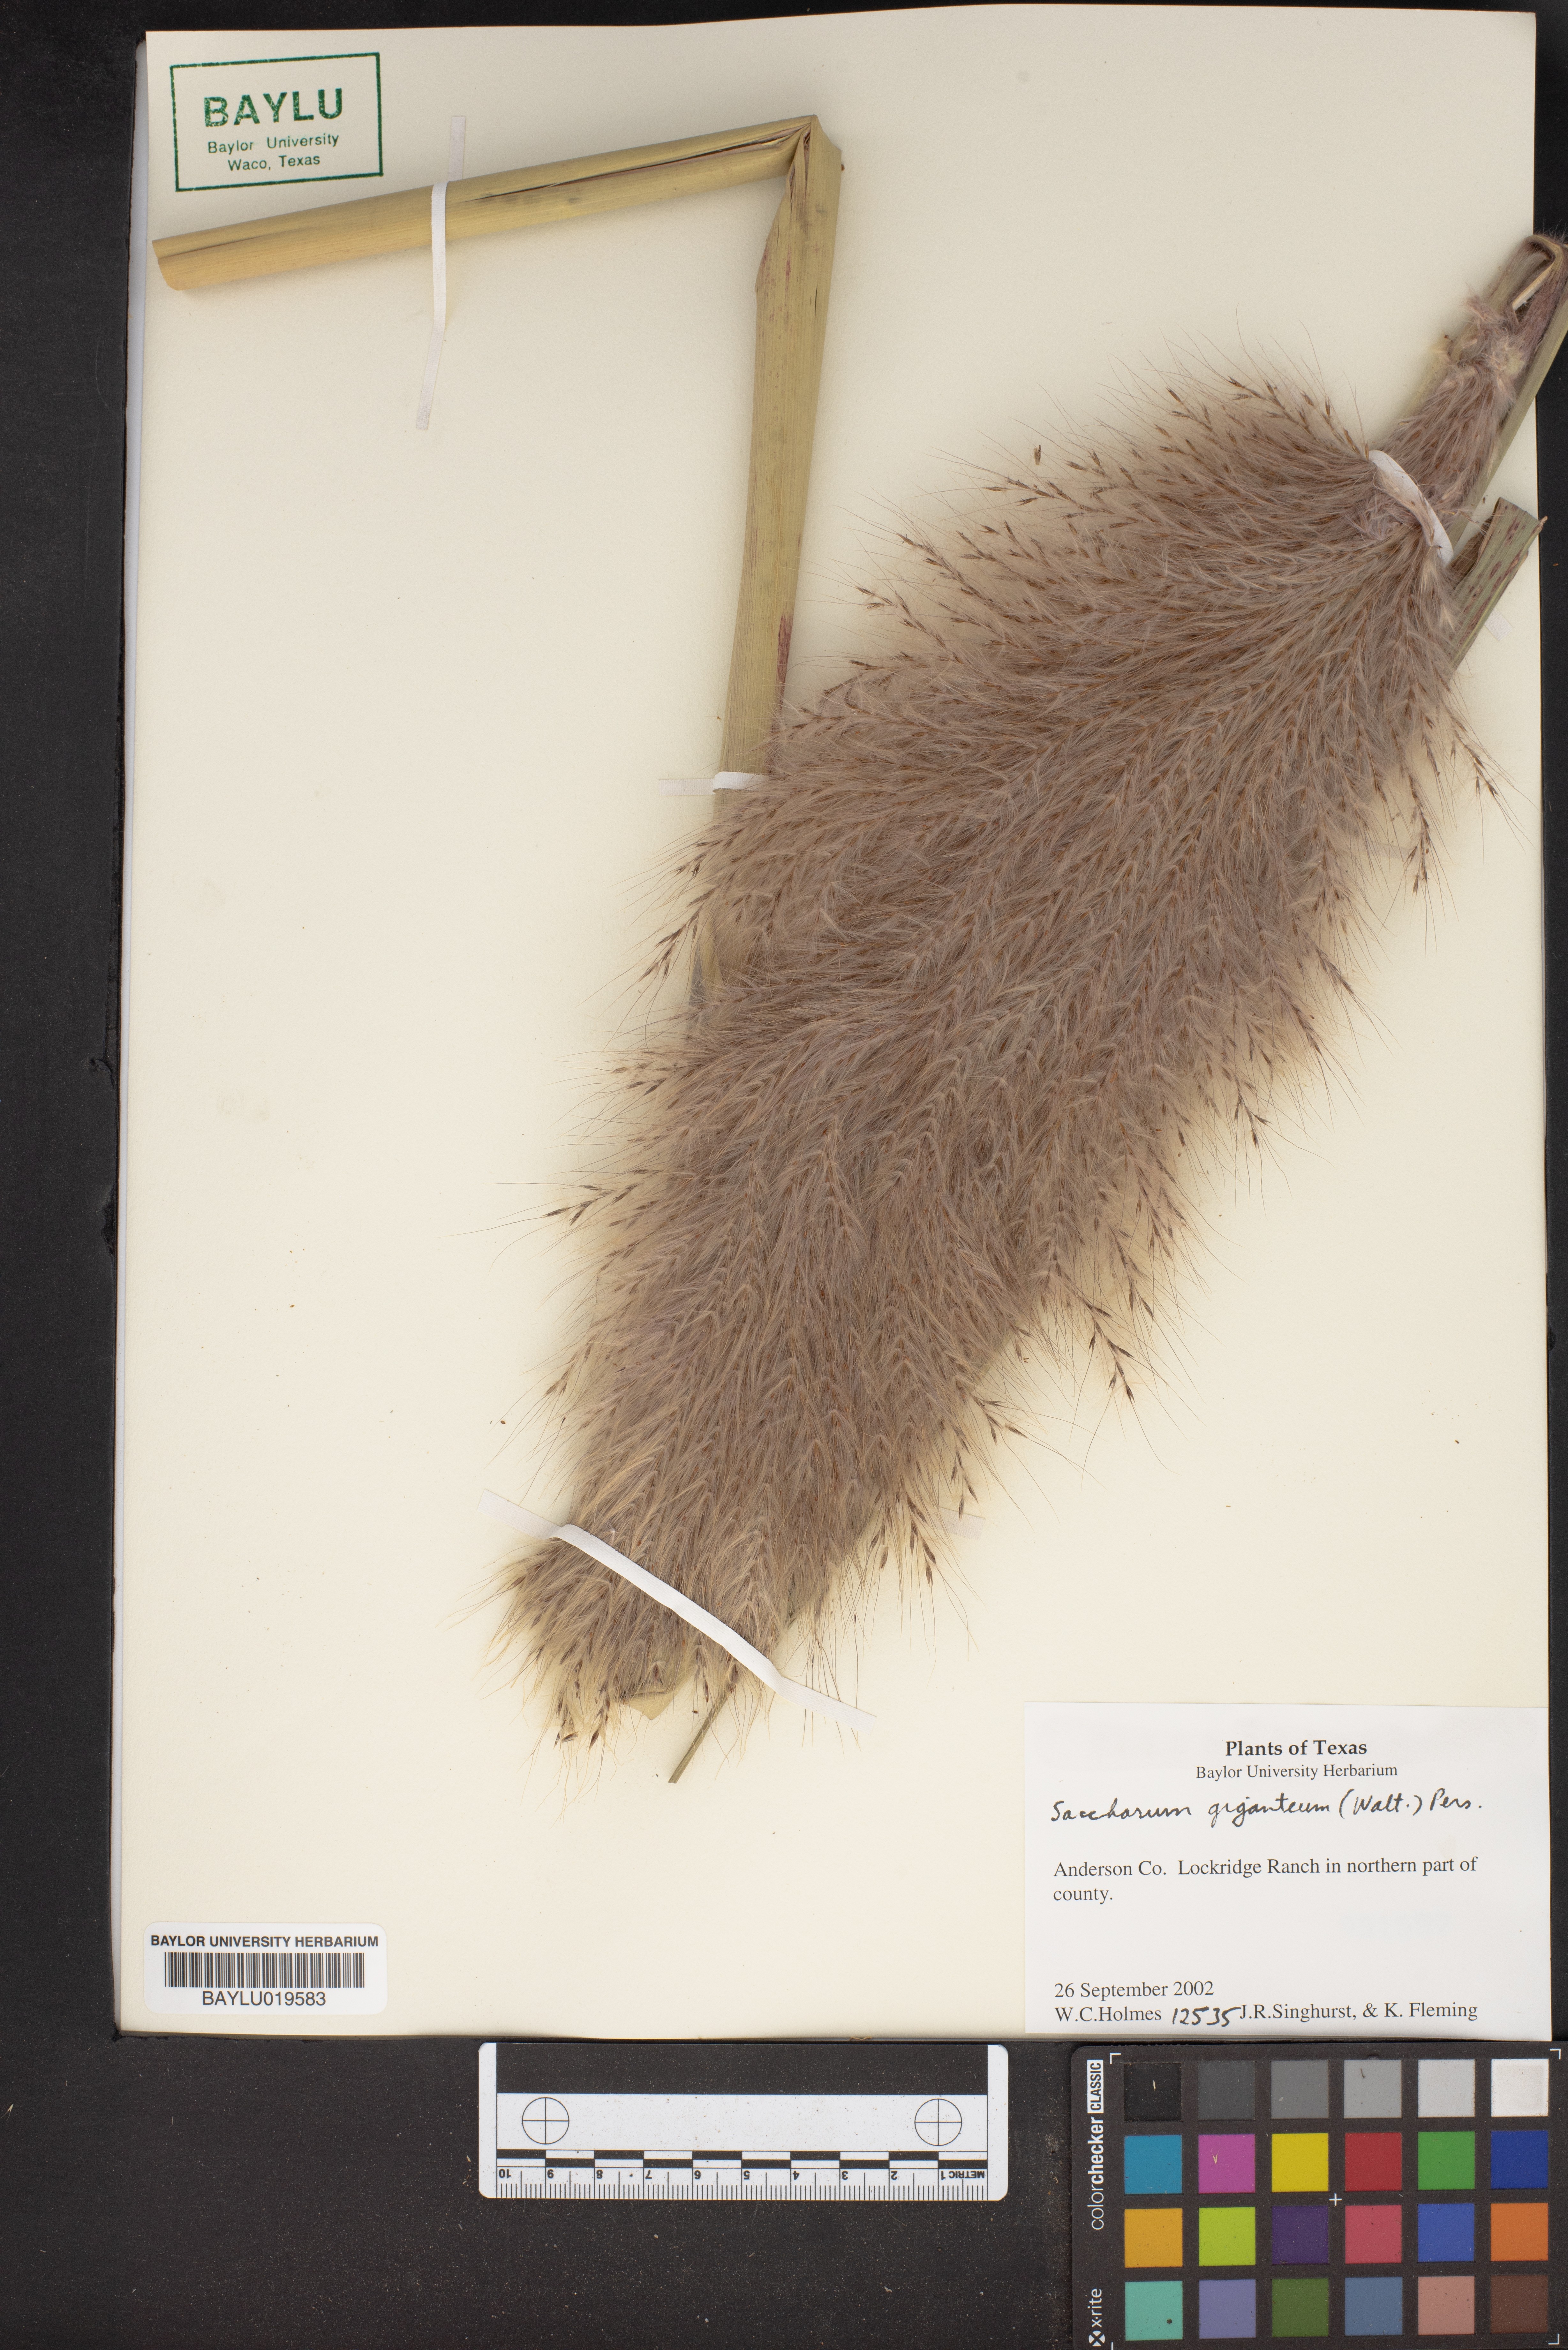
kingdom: Plantae
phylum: Tracheophyta
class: Liliopsida
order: Poales
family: Poaceae
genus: Erianthus
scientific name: Erianthus giganteus
